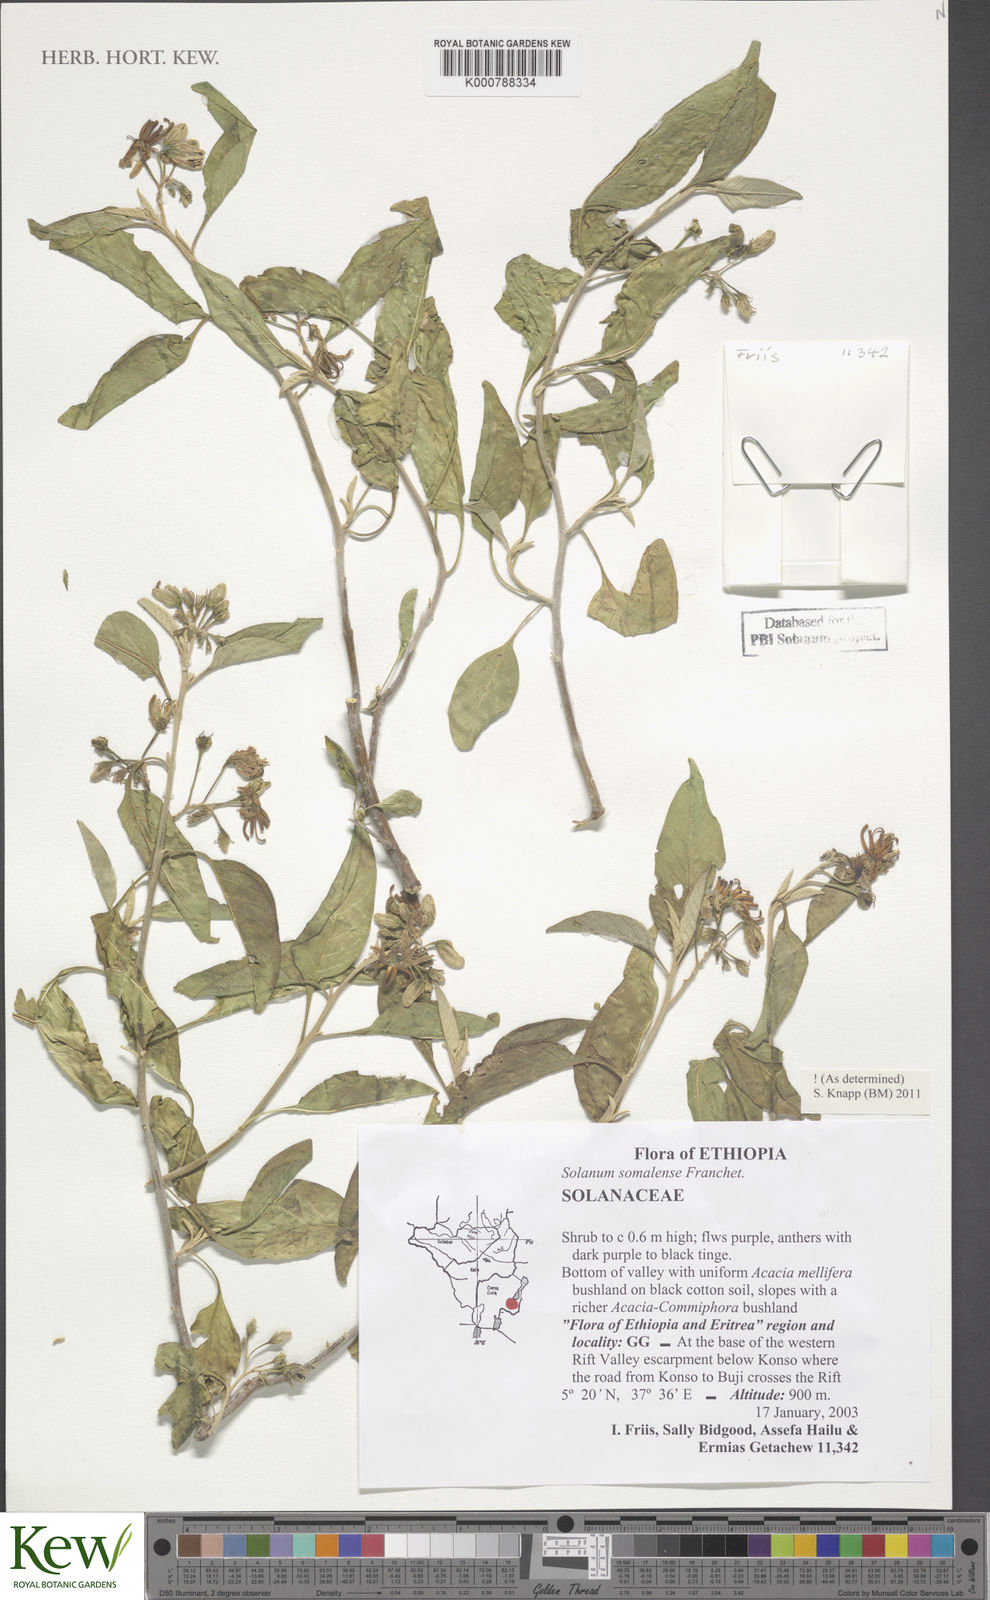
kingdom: Plantae
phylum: Tracheophyta
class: Magnoliopsida
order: Solanales
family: Solanaceae
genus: Solanum
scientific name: Solanum somalense
